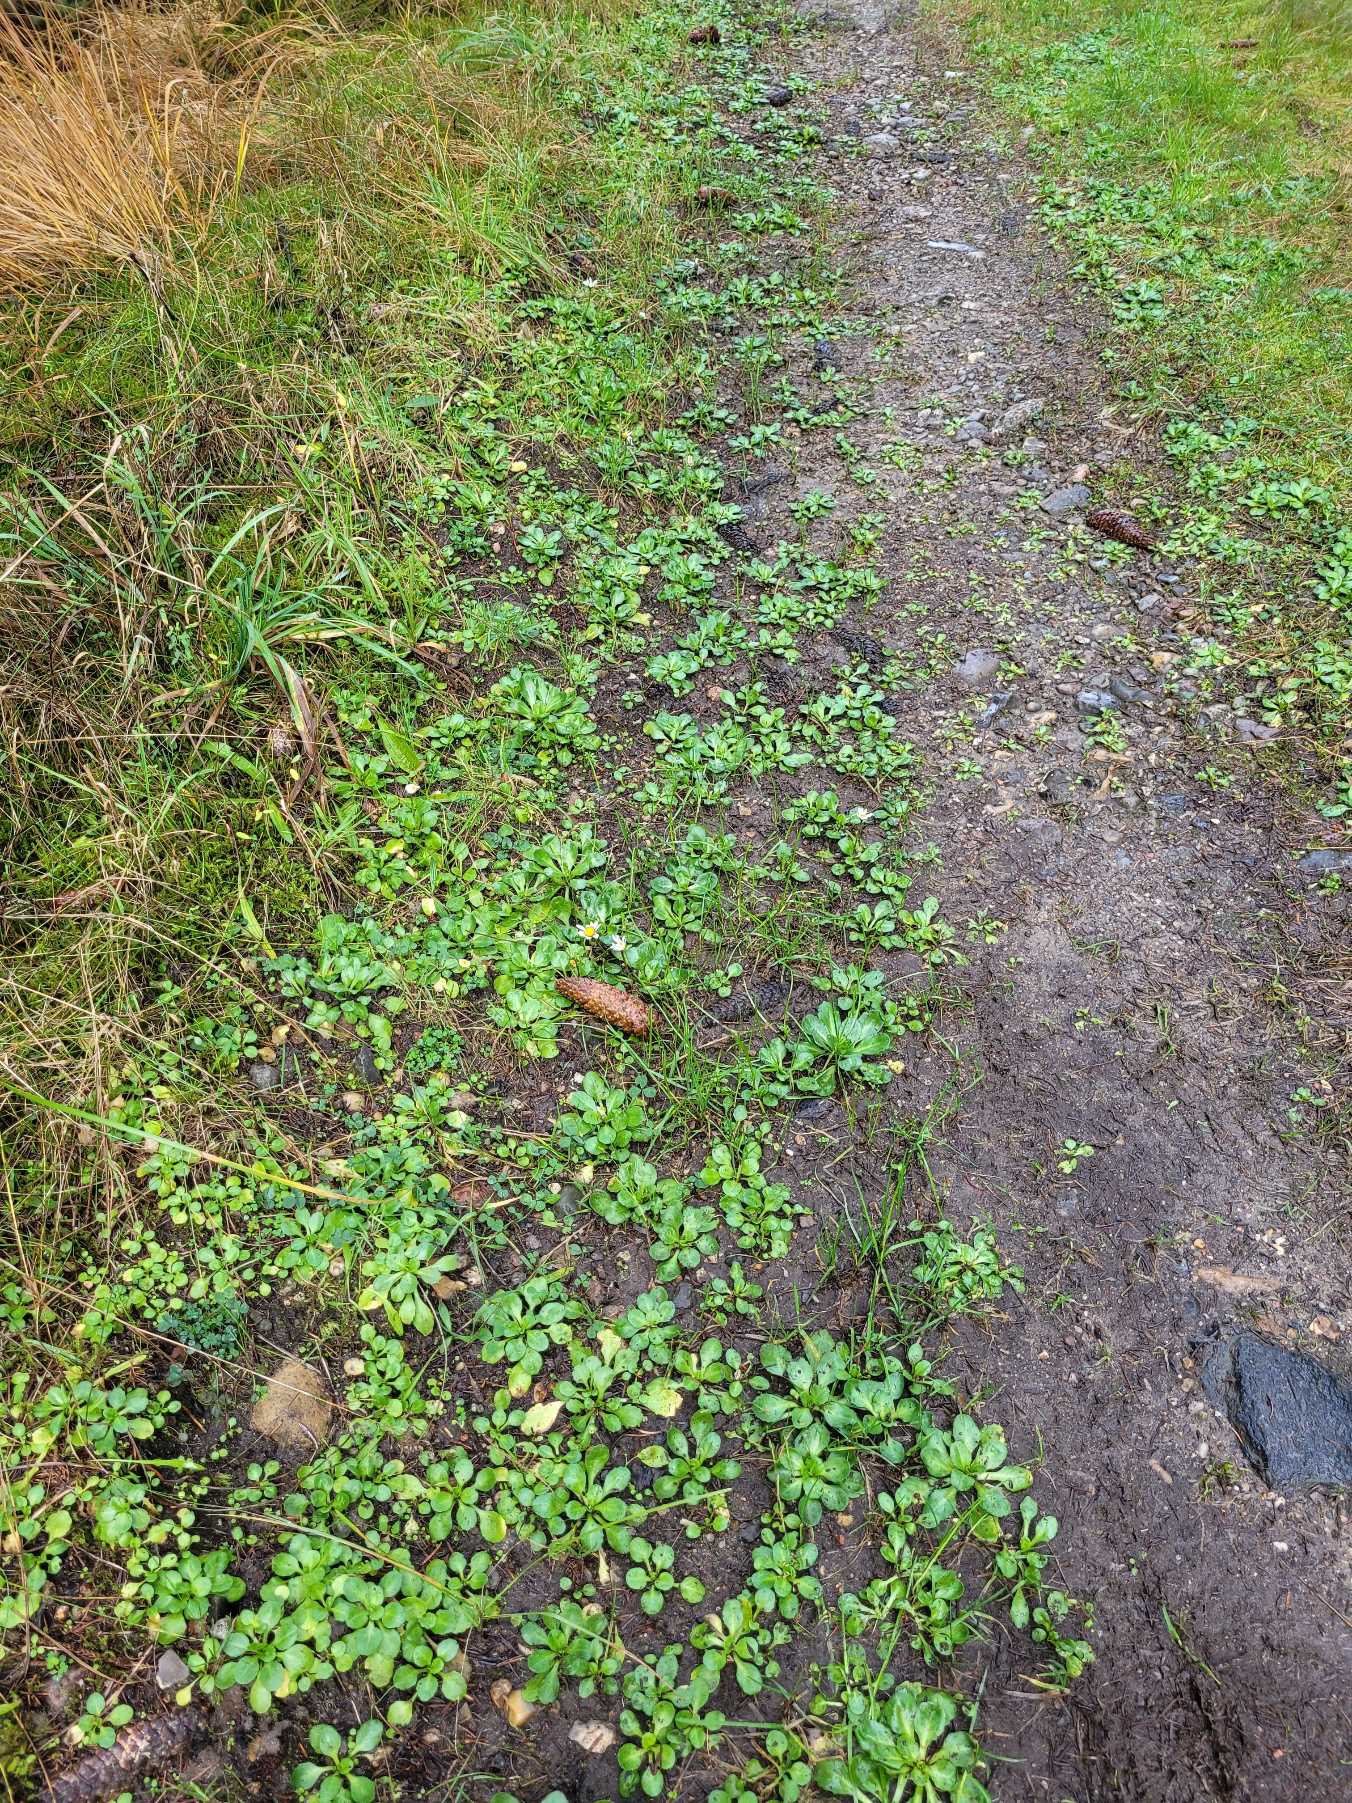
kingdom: Plantae
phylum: Tracheophyta
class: Magnoliopsida
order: Asterales
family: Asteraceae
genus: Bellis
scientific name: Bellis perennis
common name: Tusindfryd
